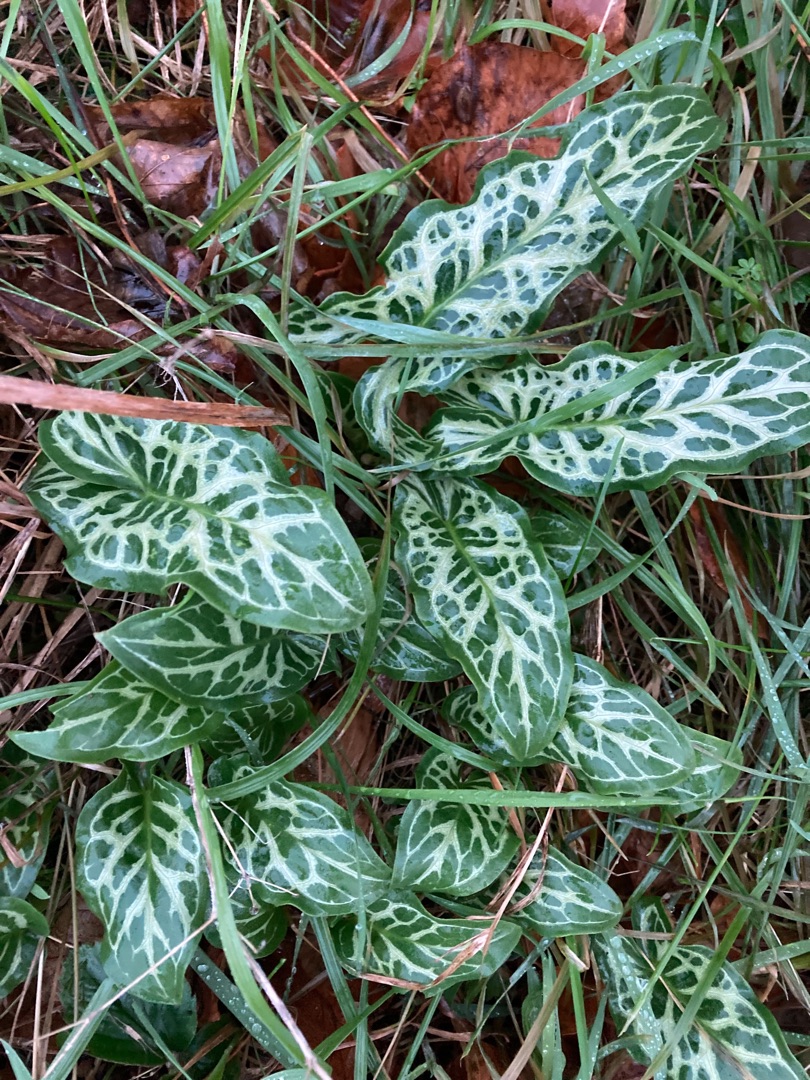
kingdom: Plantae
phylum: Tracheophyta
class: Liliopsida
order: Alismatales
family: Araceae
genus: Arum
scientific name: Arum italicum
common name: Italiensk arum
